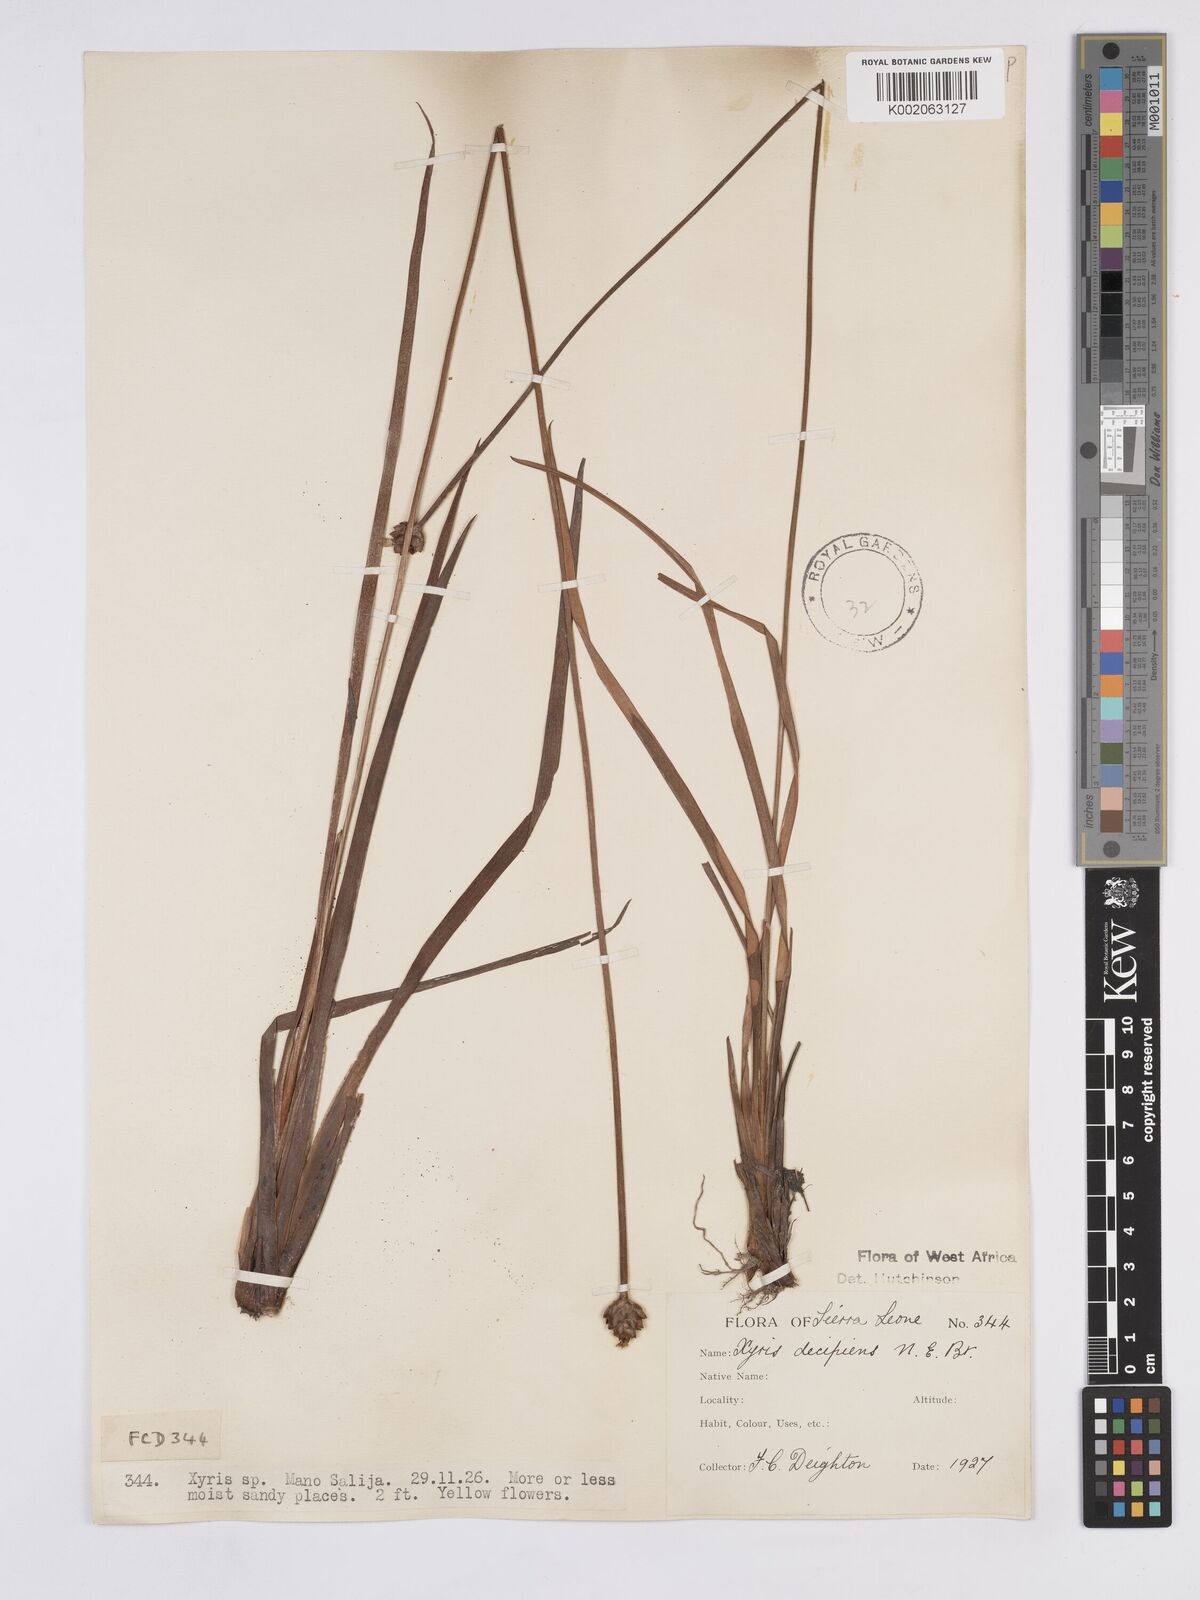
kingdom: Plantae
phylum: Tracheophyta
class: Liliopsida
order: Poales
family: Xyridaceae
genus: Xyris
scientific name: Xyris decipiens
